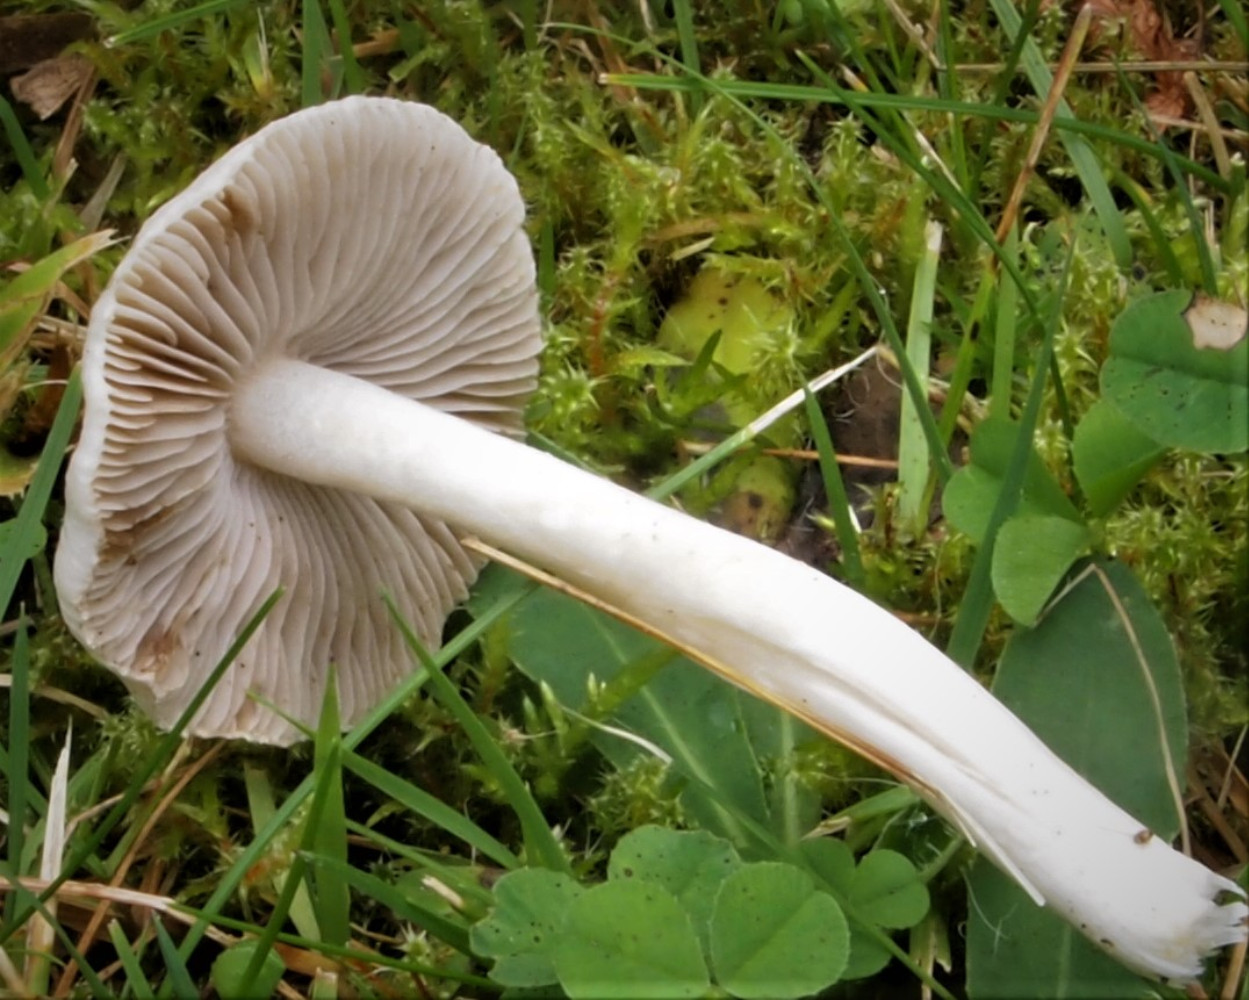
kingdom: Fungi
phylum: Basidiomycota
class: Agaricomycetes
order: Agaricales
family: Inocybaceae
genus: Inocybe
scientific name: Inocybe
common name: almindelig trævlhat
